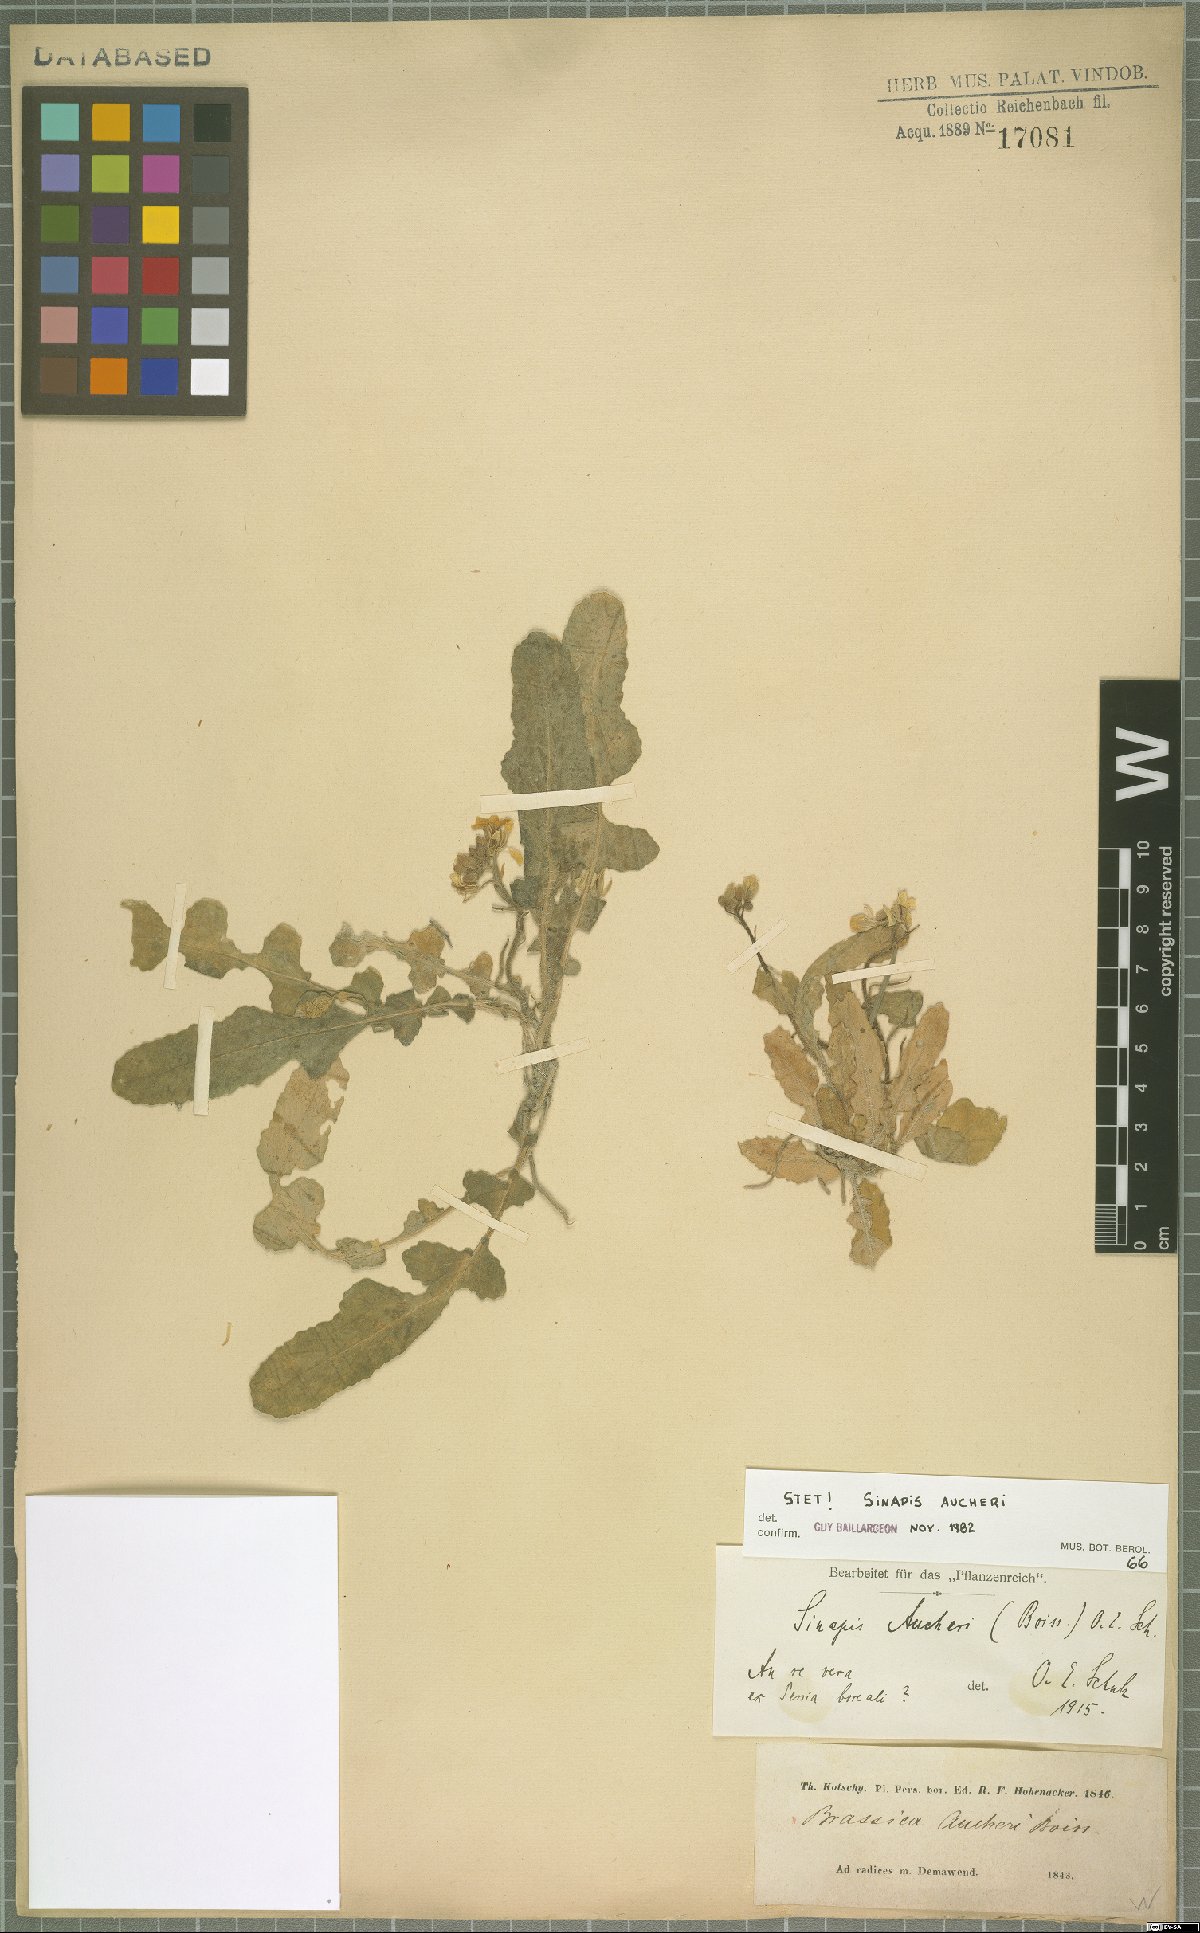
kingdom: Plantae
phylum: Tracheophyta
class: Magnoliopsida
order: Brassicales
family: Brassicaceae
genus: Brassica
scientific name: Brassica aucheri
